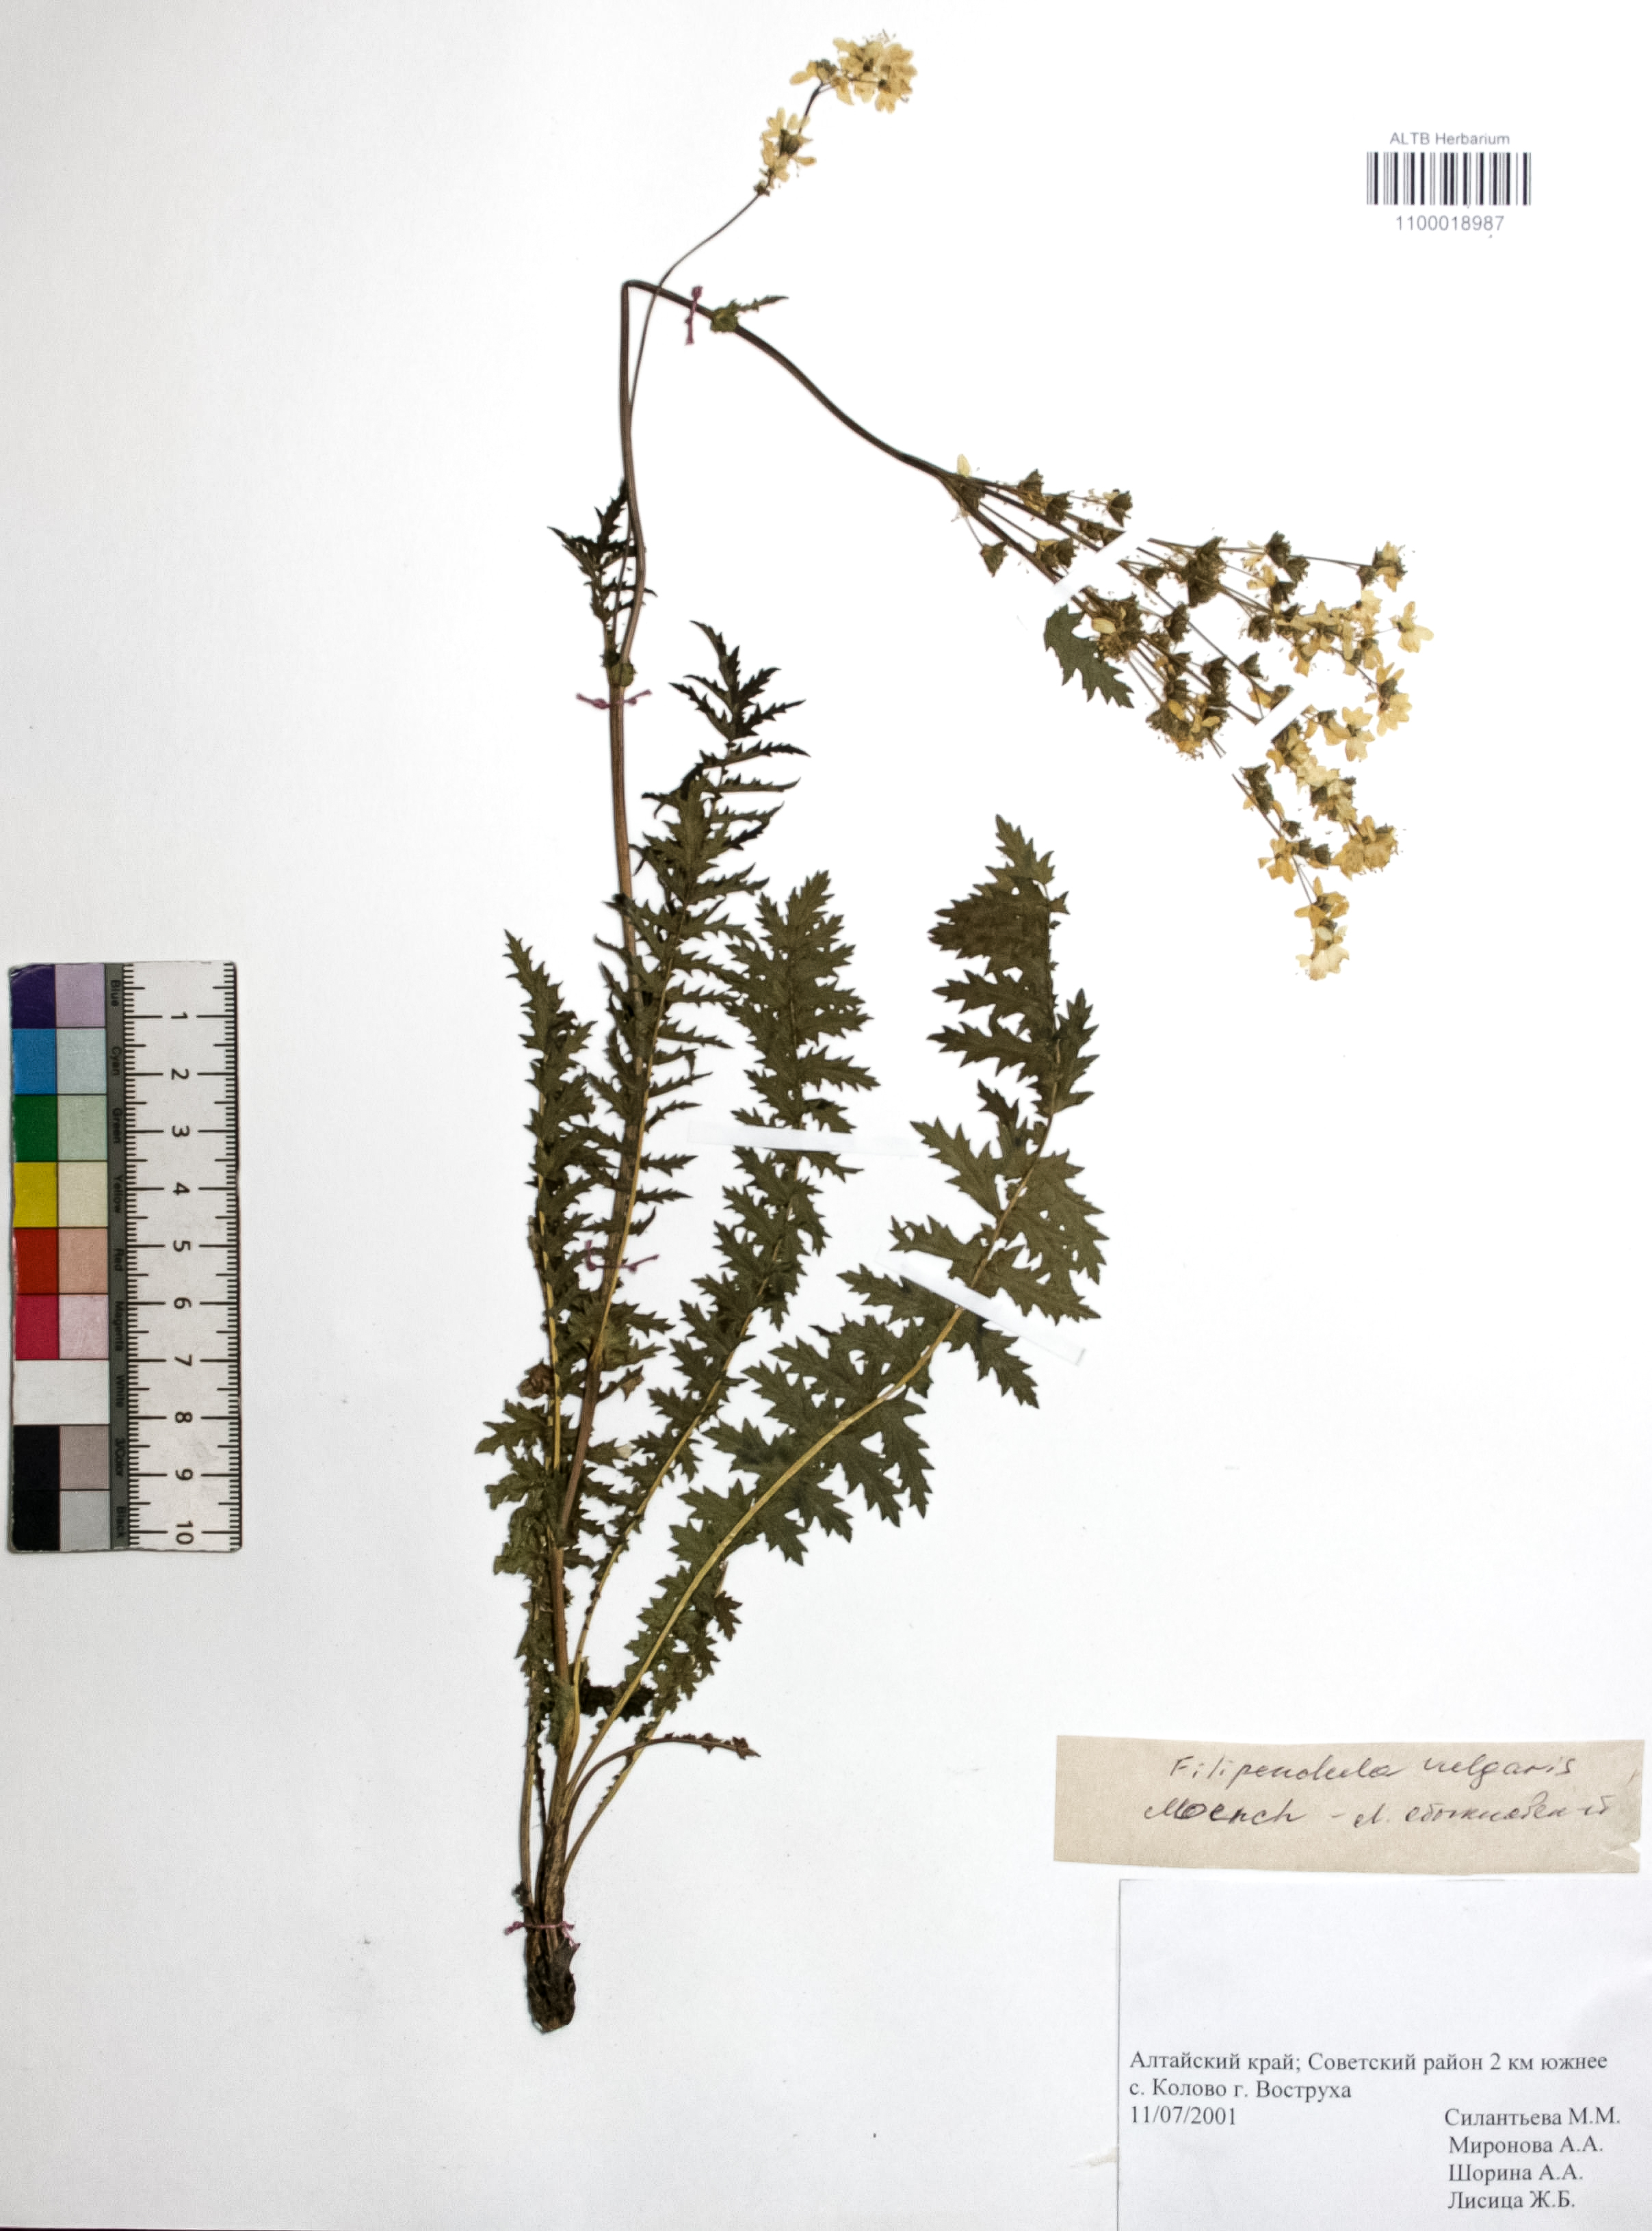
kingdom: Plantae
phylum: Tracheophyta
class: Magnoliopsida
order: Rosales
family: Rosaceae
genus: Filipendula
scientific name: Filipendula vulgaris
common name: Dropwort
